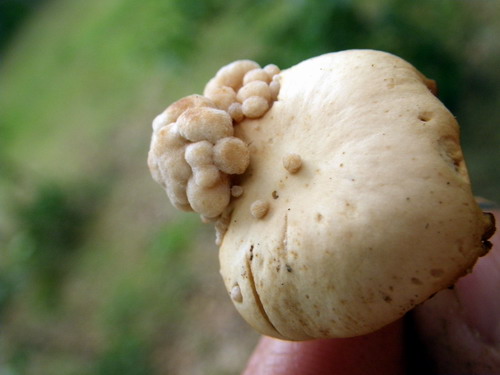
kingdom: Fungi
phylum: Basidiomycota
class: Tremellomycetes
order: Filobasidiales
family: Filobasidiaceae
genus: Syzygospora
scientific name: Syzygospora tumefaciens
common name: fladhatte-snyltehjerne
